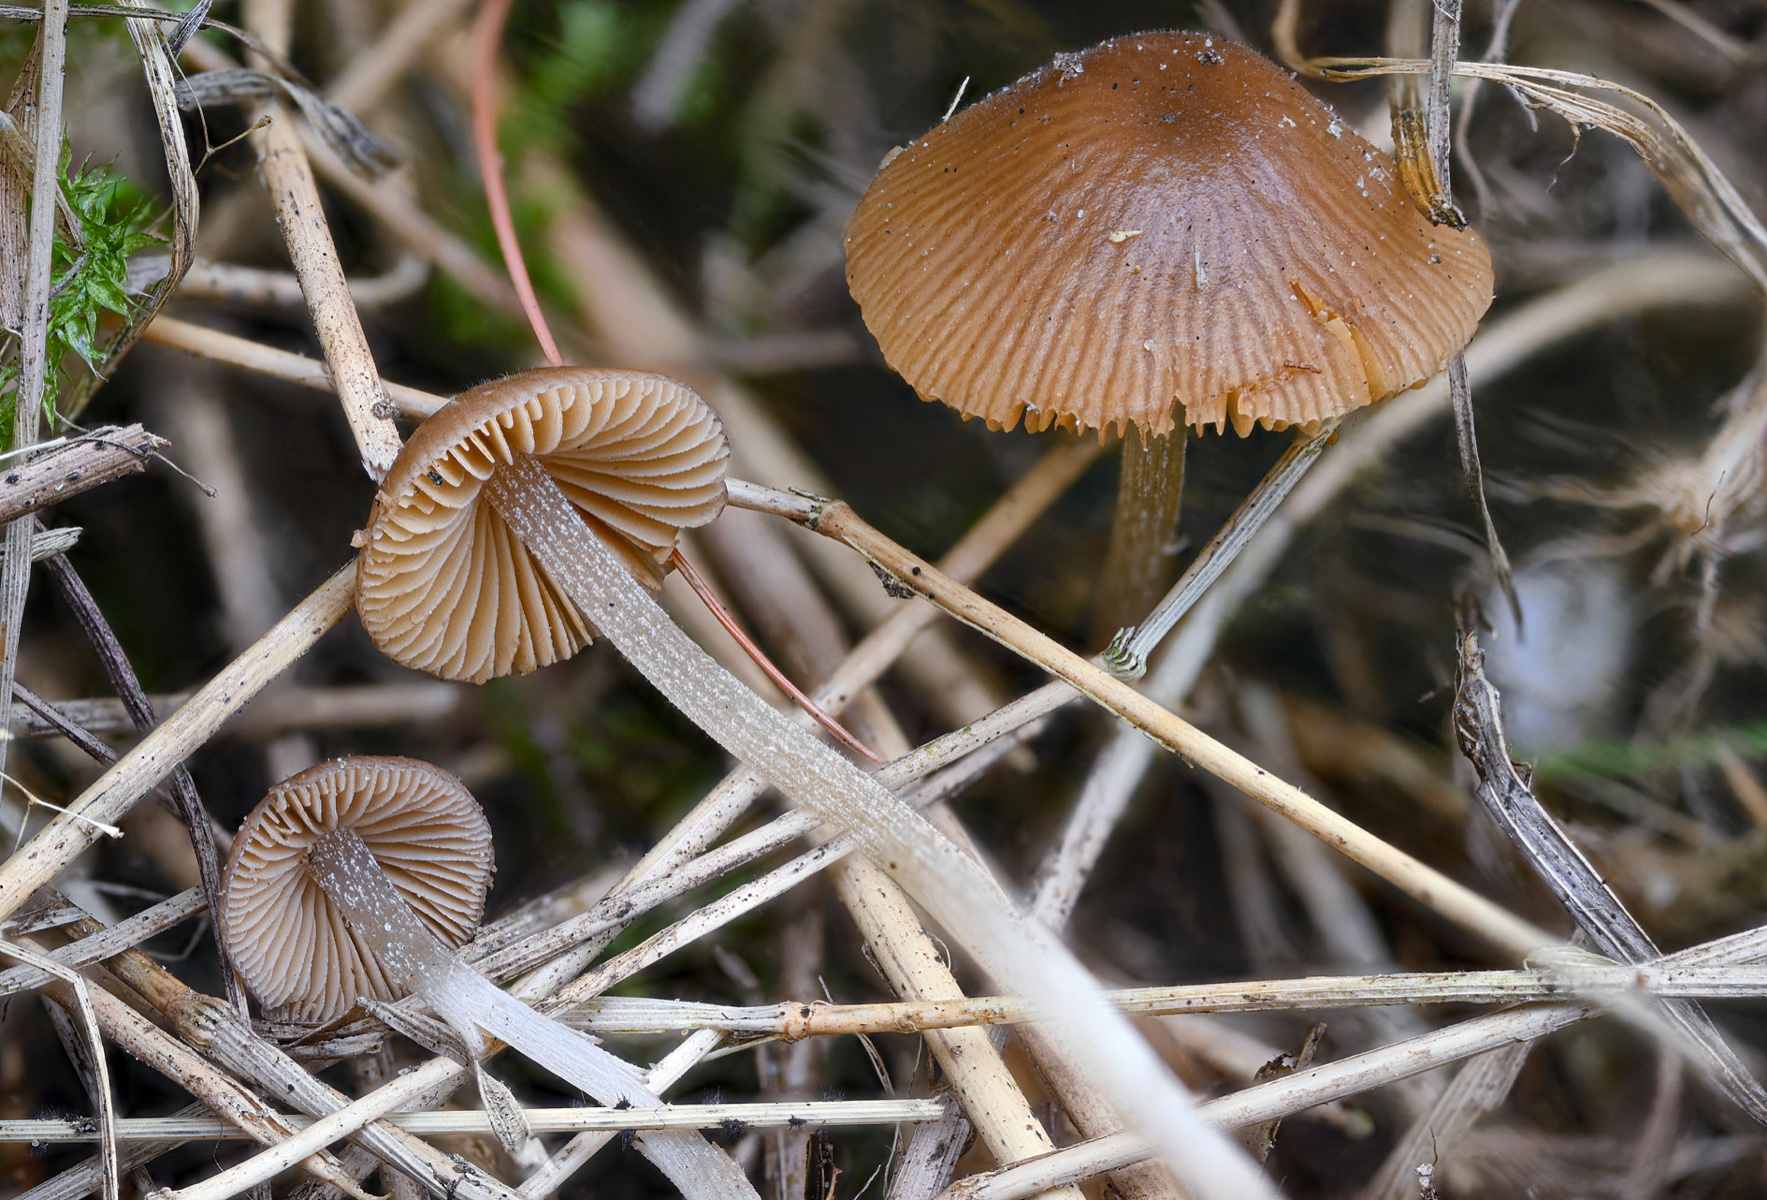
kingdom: Fungi
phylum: Basidiomycota
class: Agaricomycetes
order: Agaricales
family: Bolbitiaceae
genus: Conocybe
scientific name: Conocybe tuxtlaensis
